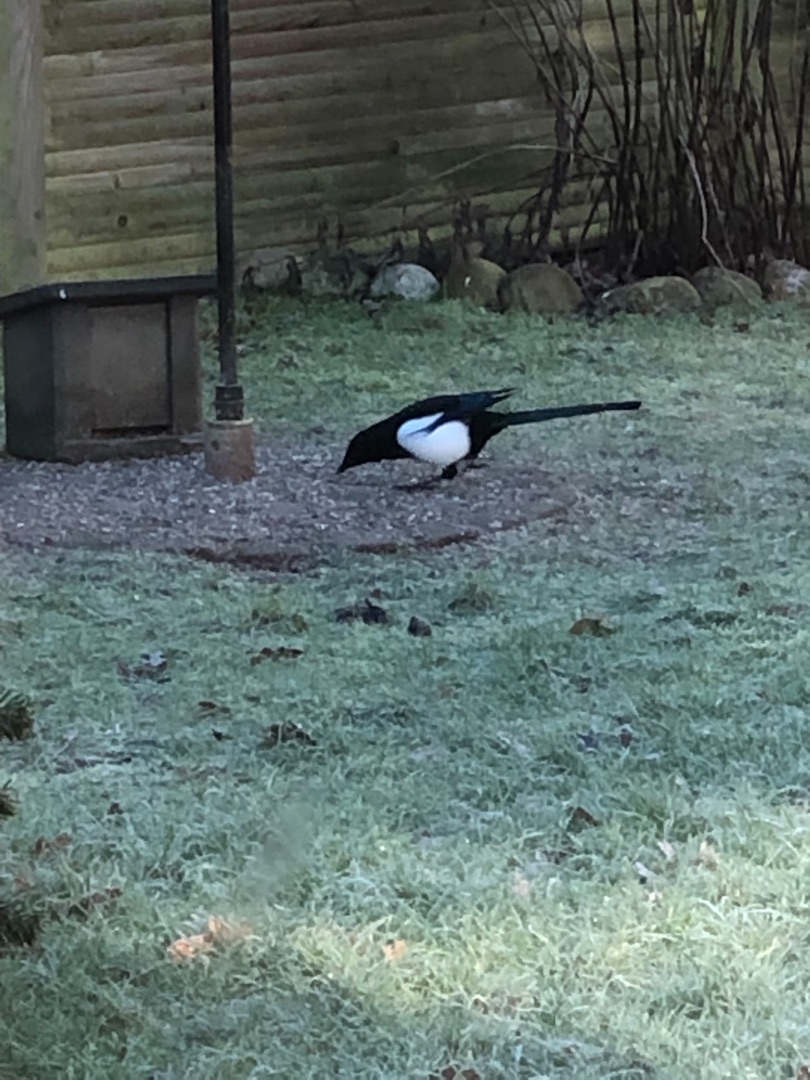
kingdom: Animalia
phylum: Chordata
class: Aves
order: Passeriformes
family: Corvidae
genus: Pica
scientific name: Pica pica
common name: Husskade
